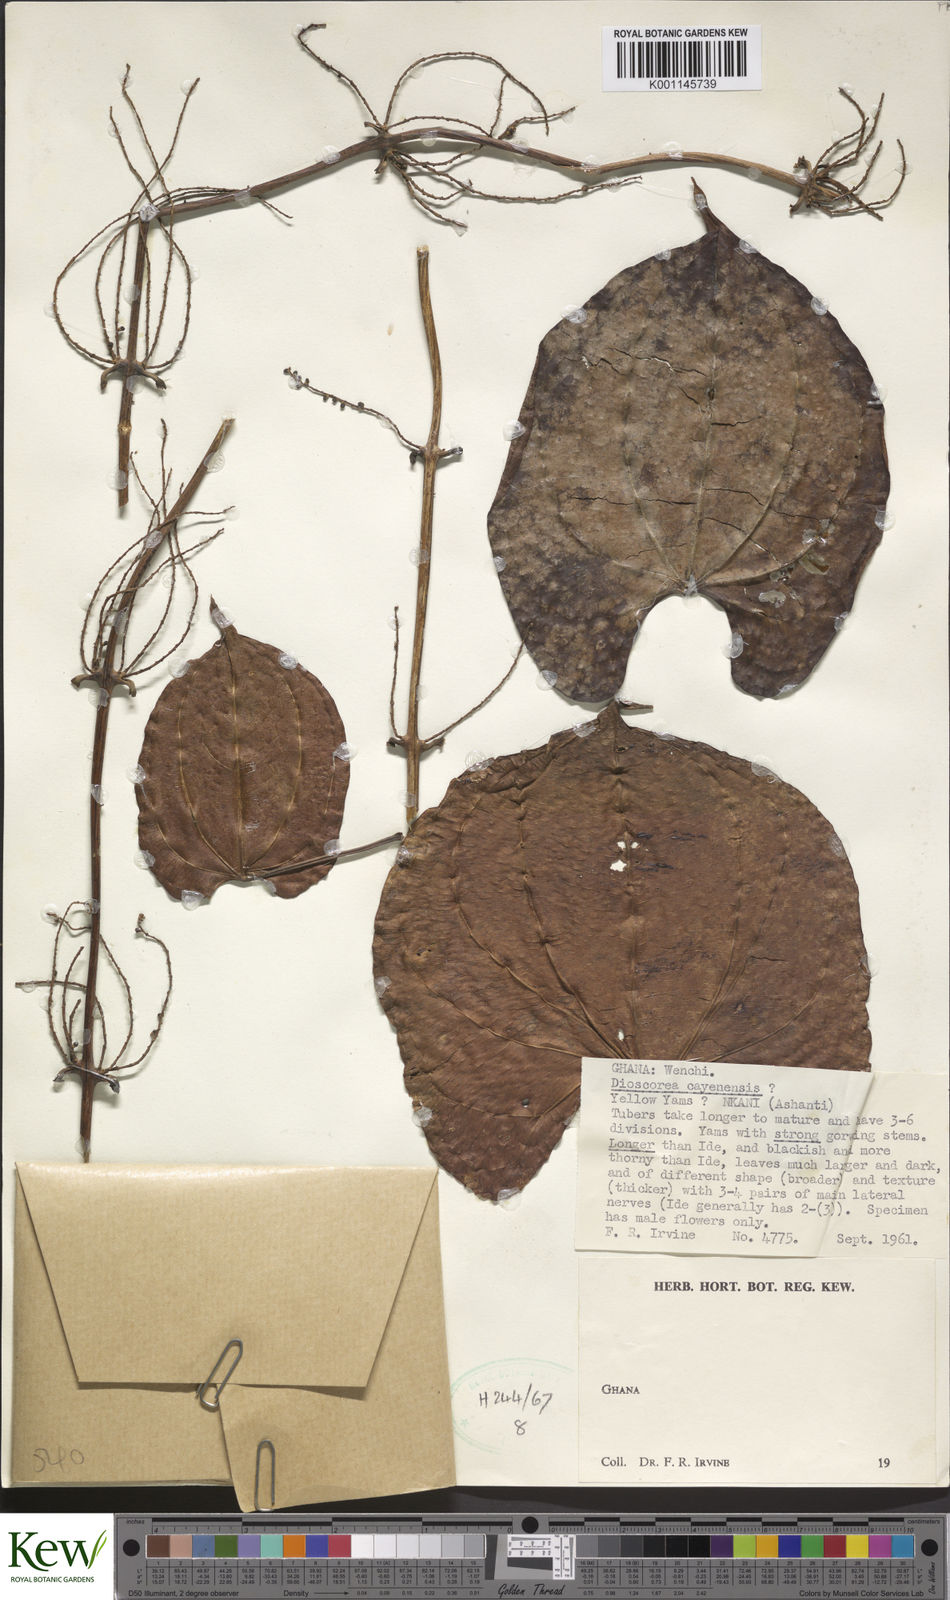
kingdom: Plantae
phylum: Tracheophyta
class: Liliopsida
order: Dioscoreales
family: Dioscoreaceae
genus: Dioscorea
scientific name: Dioscorea cayenensis
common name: Attoto yam
